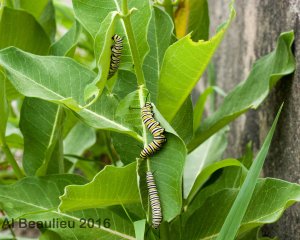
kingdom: Animalia
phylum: Arthropoda
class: Insecta
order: Lepidoptera
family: Nymphalidae
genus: Danaus
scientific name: Danaus plexippus
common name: Monarch
